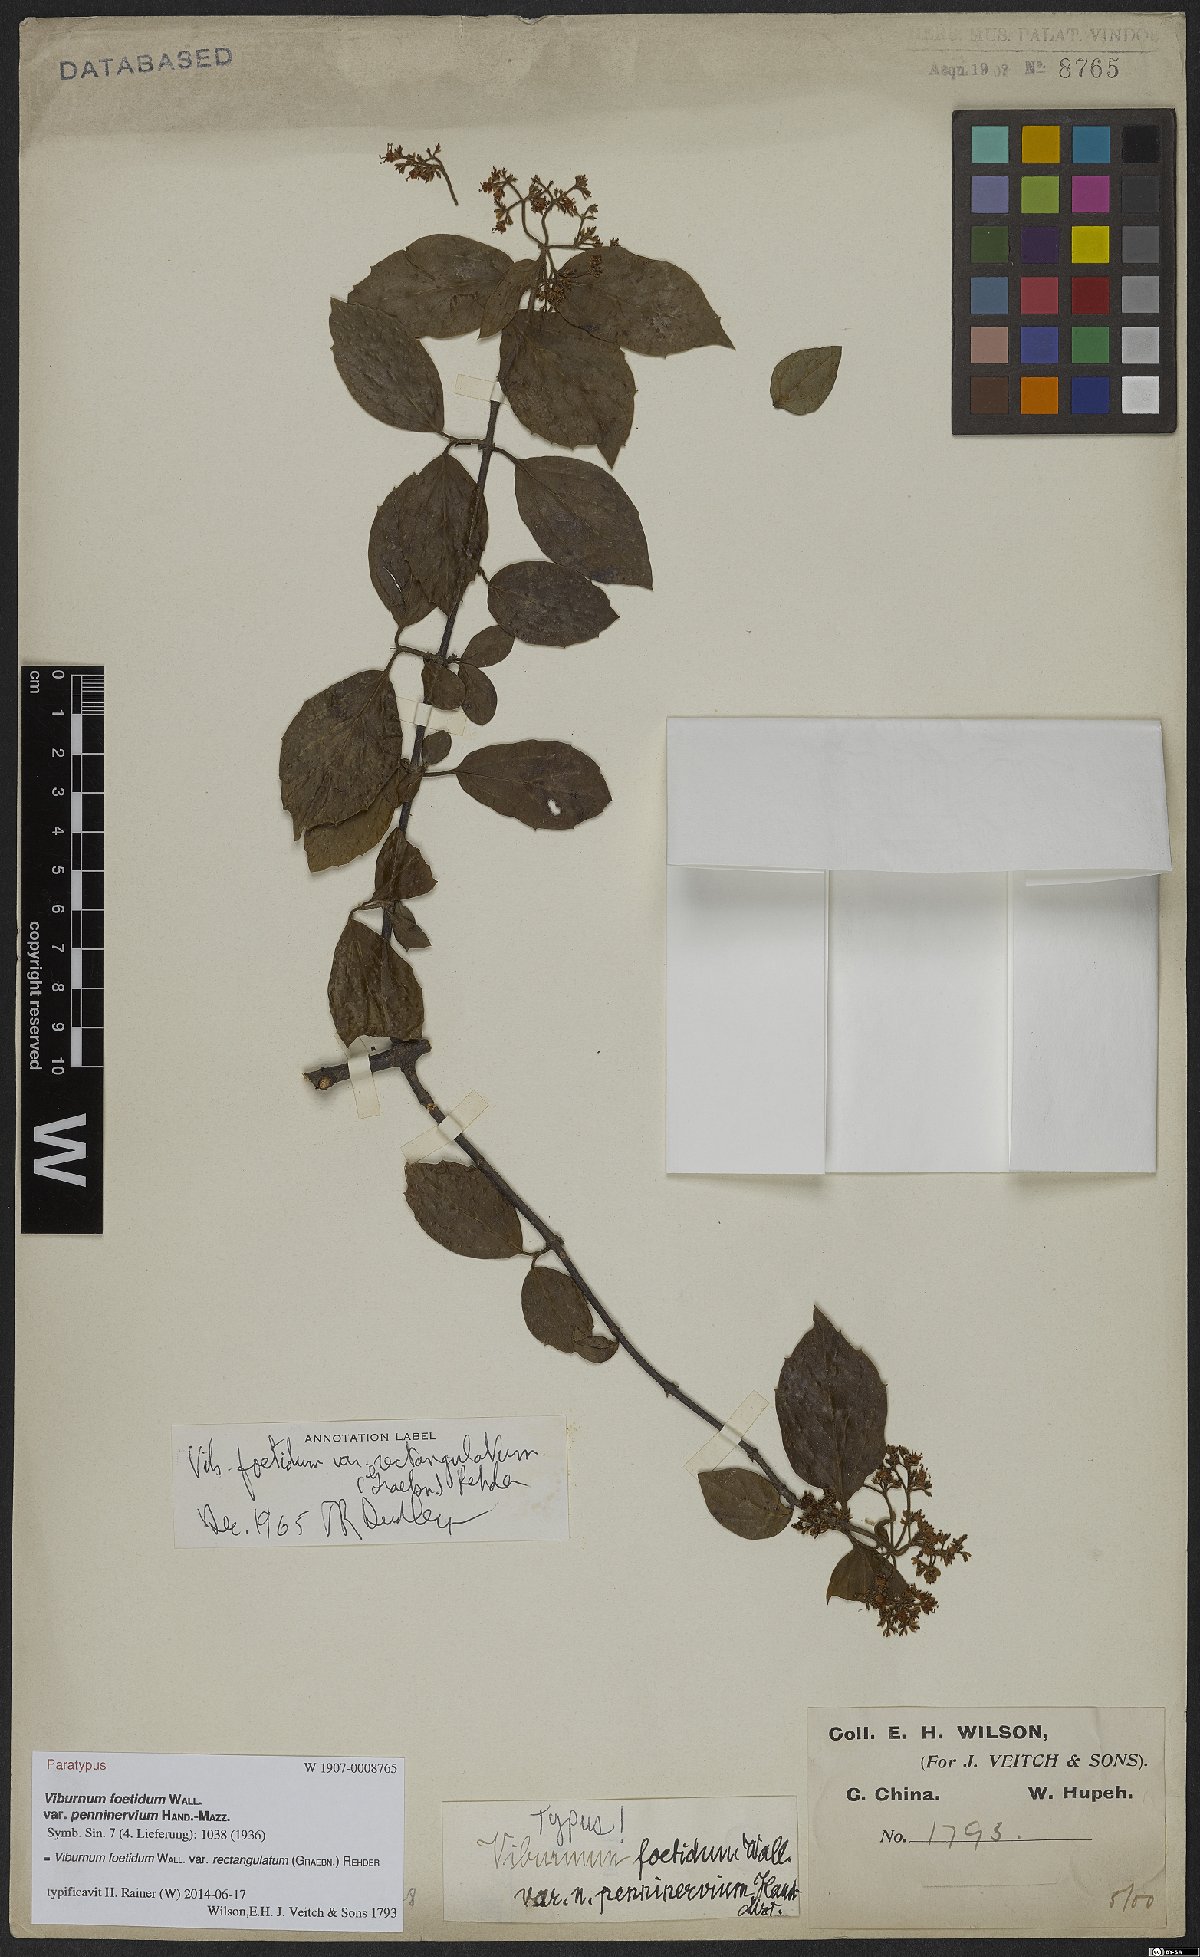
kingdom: Plantae
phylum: Tracheophyta
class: Magnoliopsida
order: Dipsacales
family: Viburnaceae
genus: Viburnum
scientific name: Viburnum foetidum
